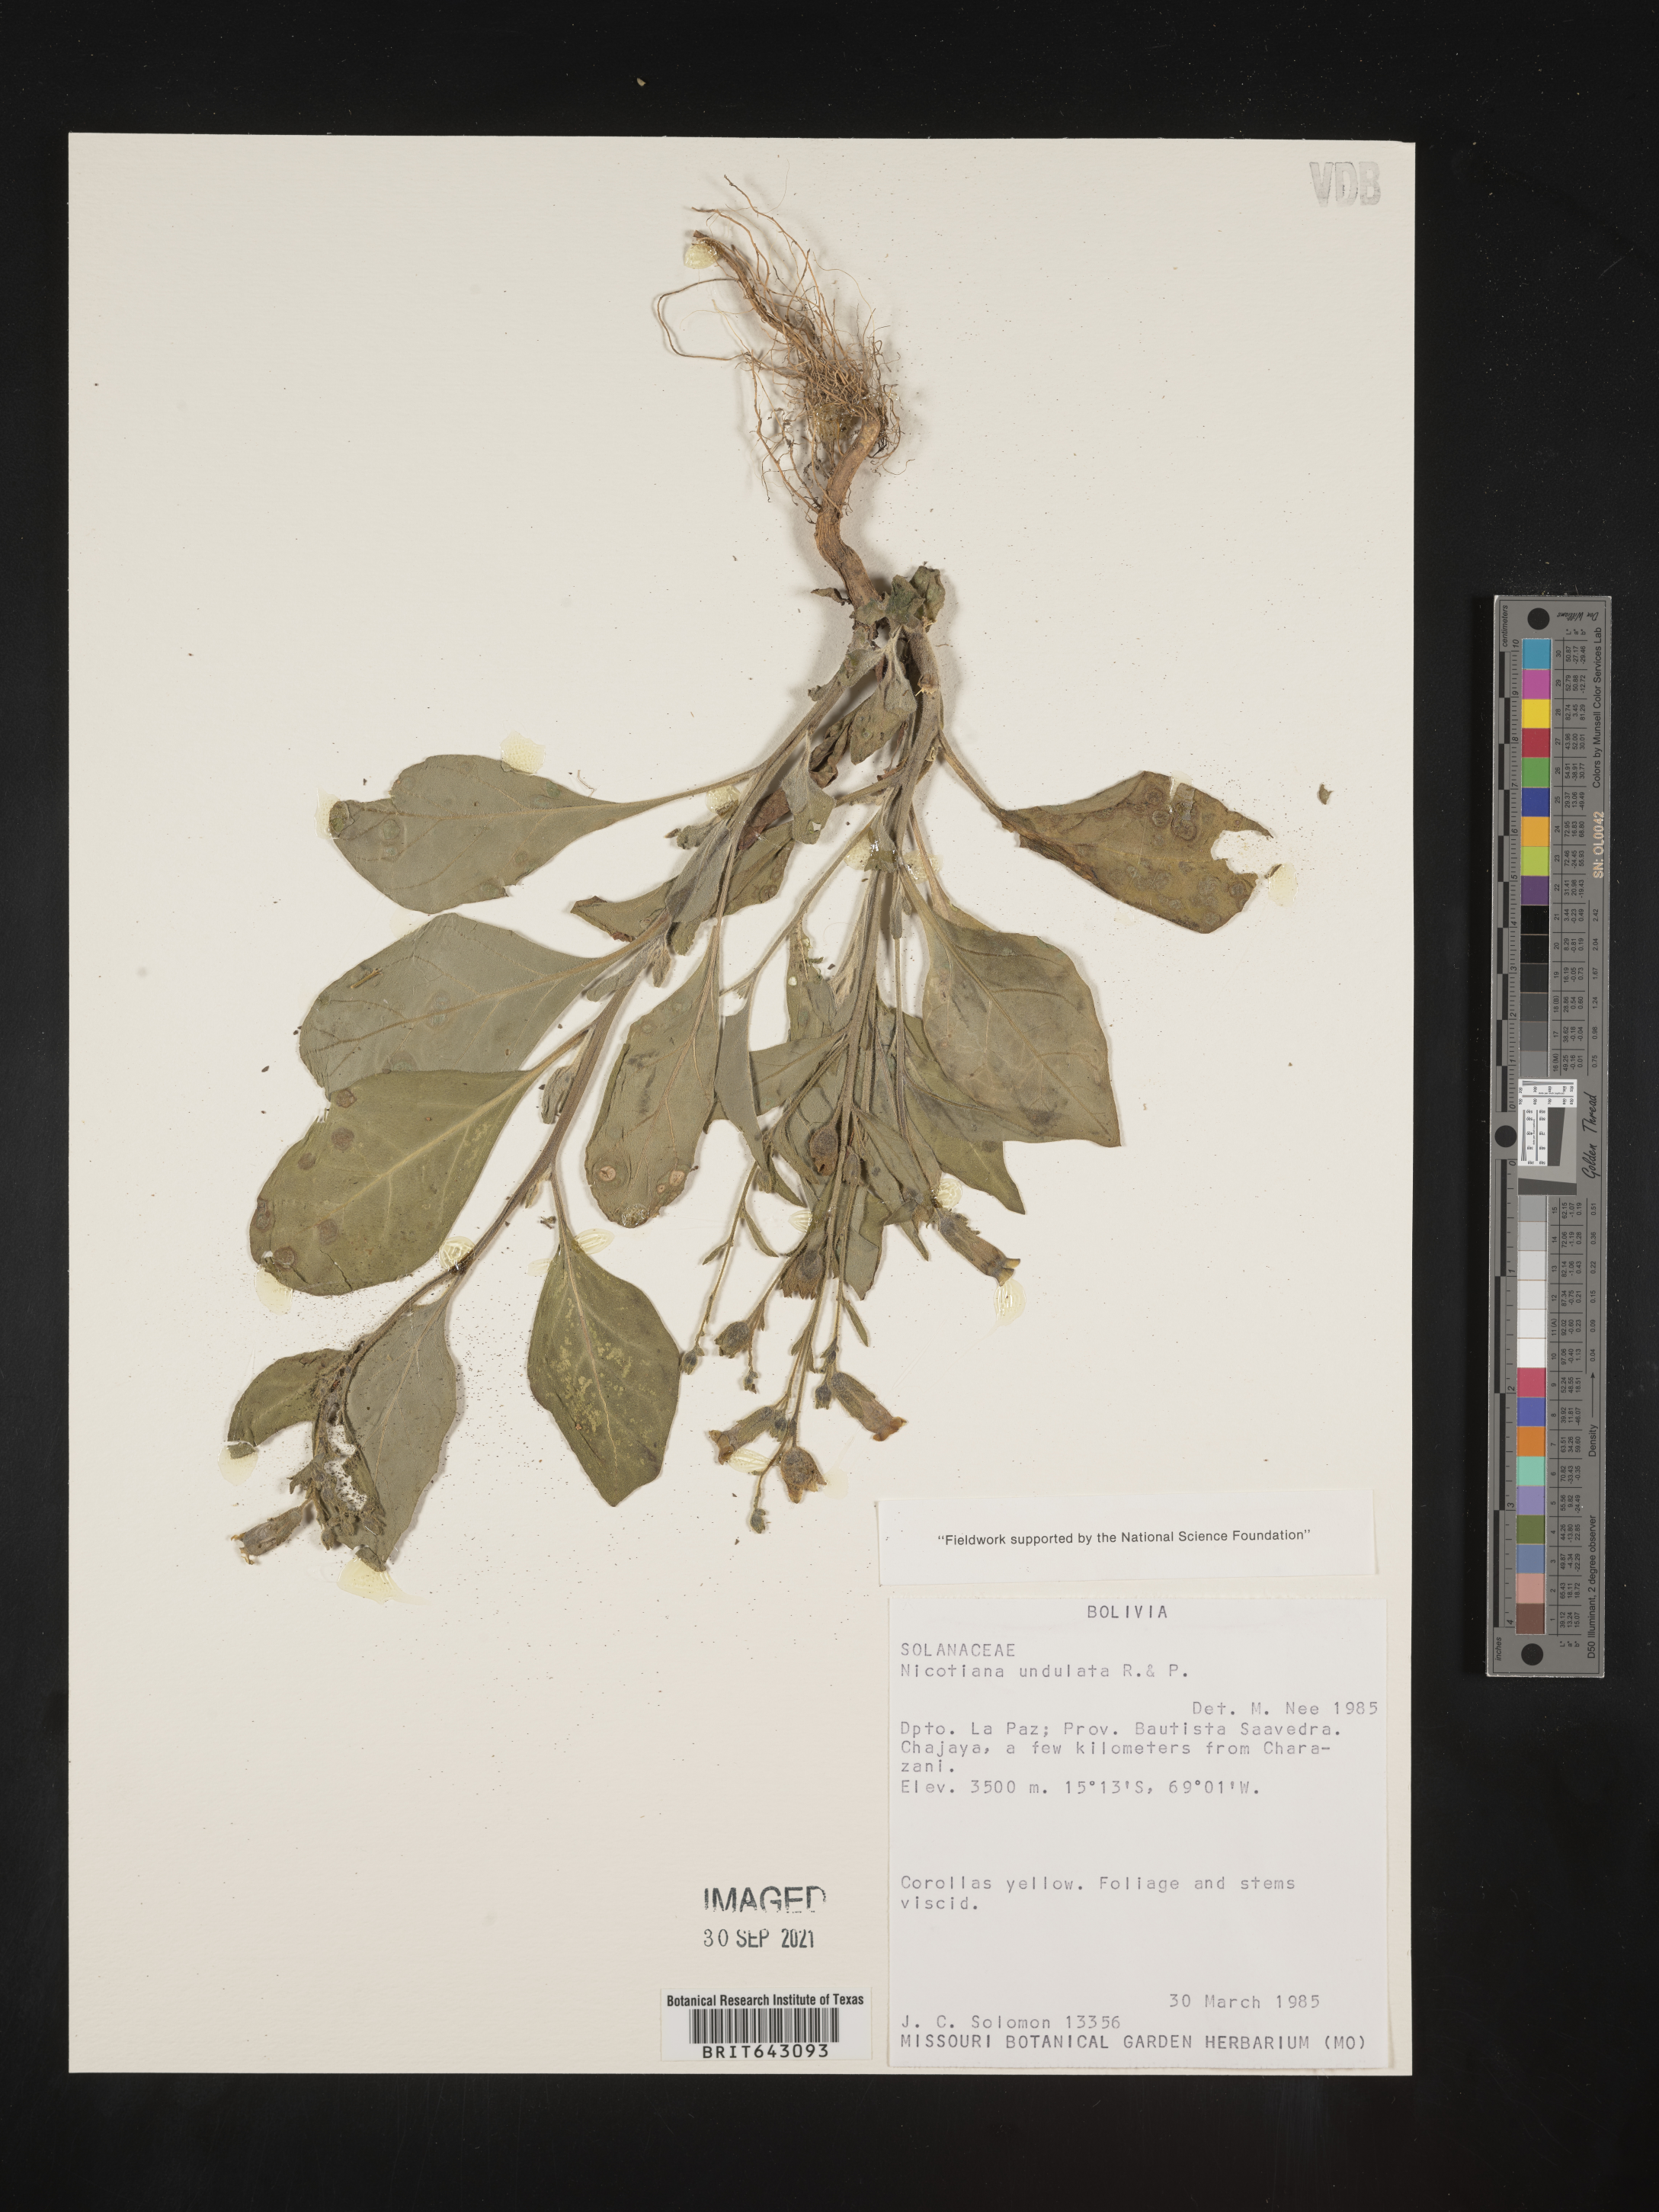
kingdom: Plantae
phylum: Tracheophyta
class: Magnoliopsida
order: Solanales
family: Solanaceae
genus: Nicotiana
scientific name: Nicotiana
